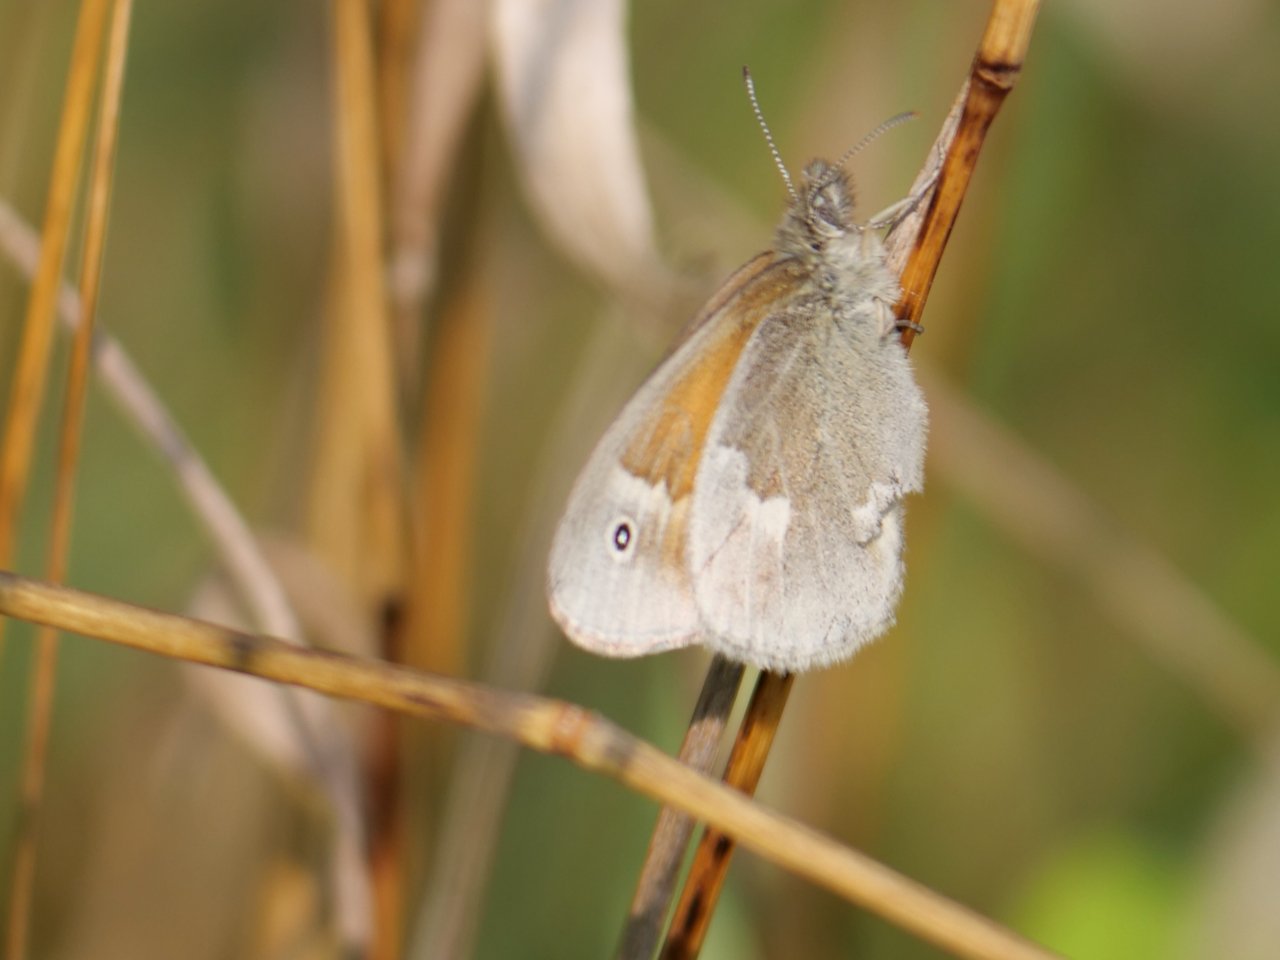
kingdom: Animalia
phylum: Arthropoda
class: Insecta
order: Lepidoptera
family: Nymphalidae
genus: Coenonympha
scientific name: Coenonympha tullia
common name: Large Heath
